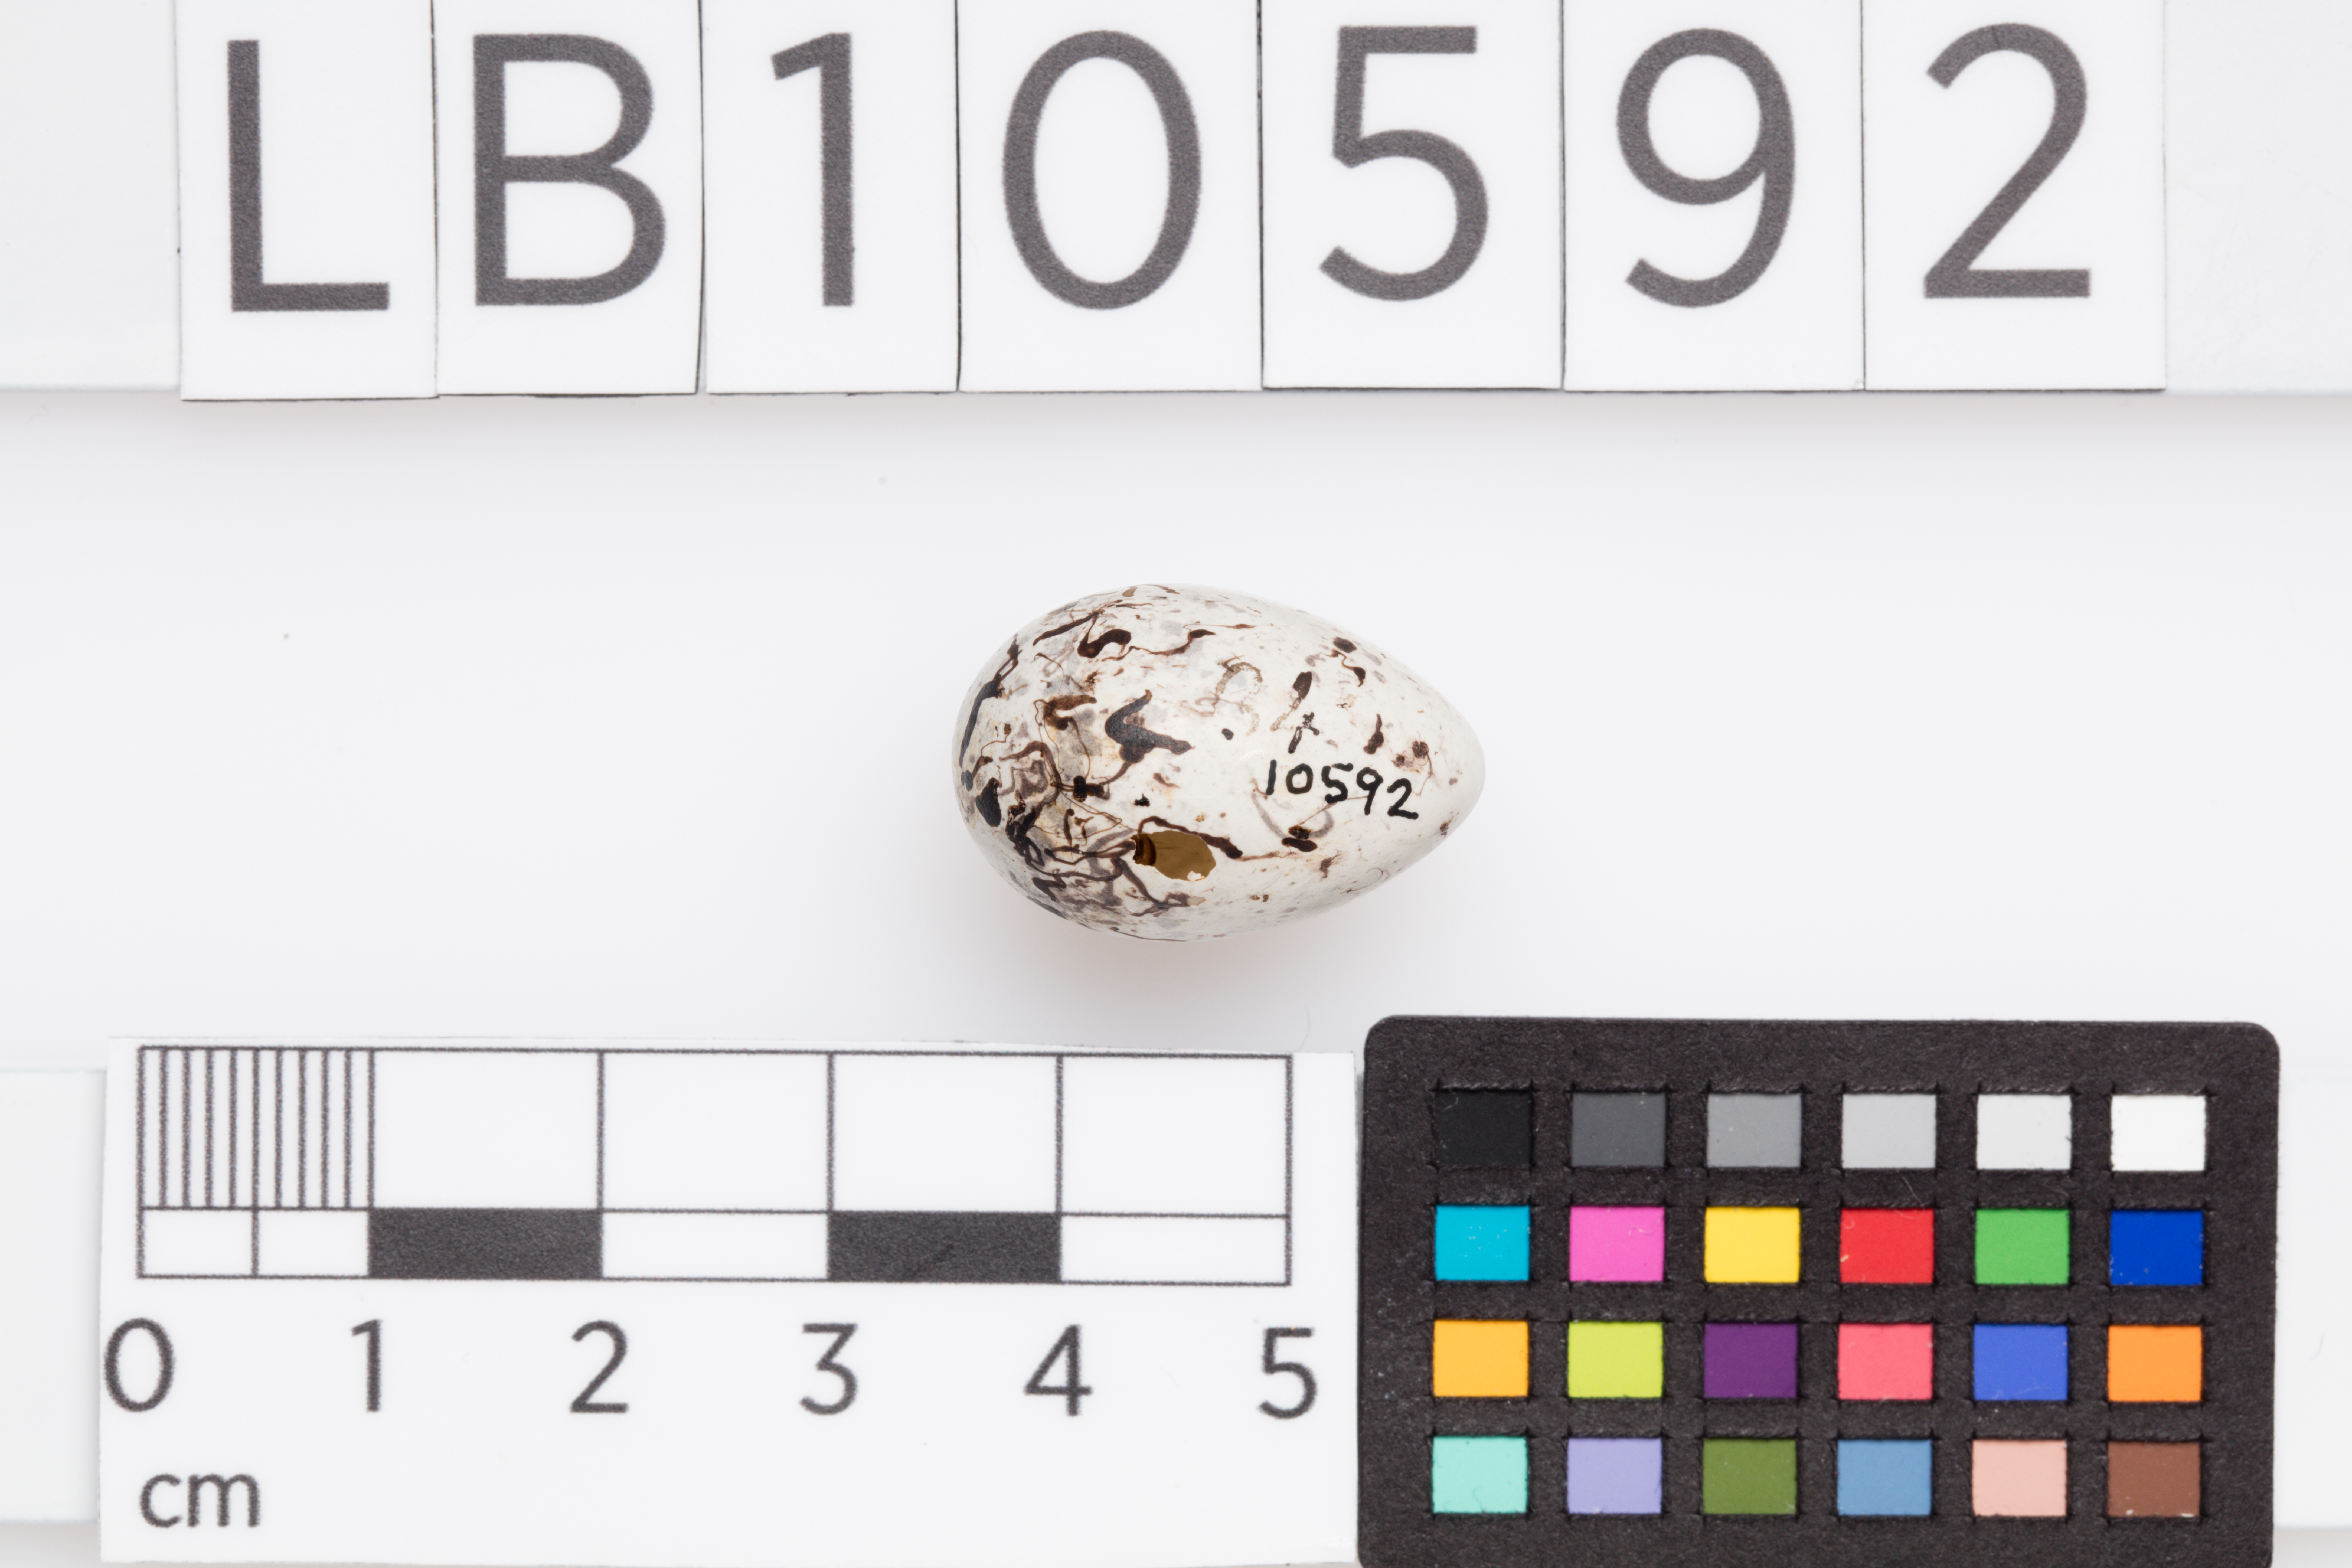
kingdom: Animalia
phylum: Chordata
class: Aves
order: Passeriformes
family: Emberizidae
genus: Emberiza
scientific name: Emberiza cirlus
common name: Cirl bunting
